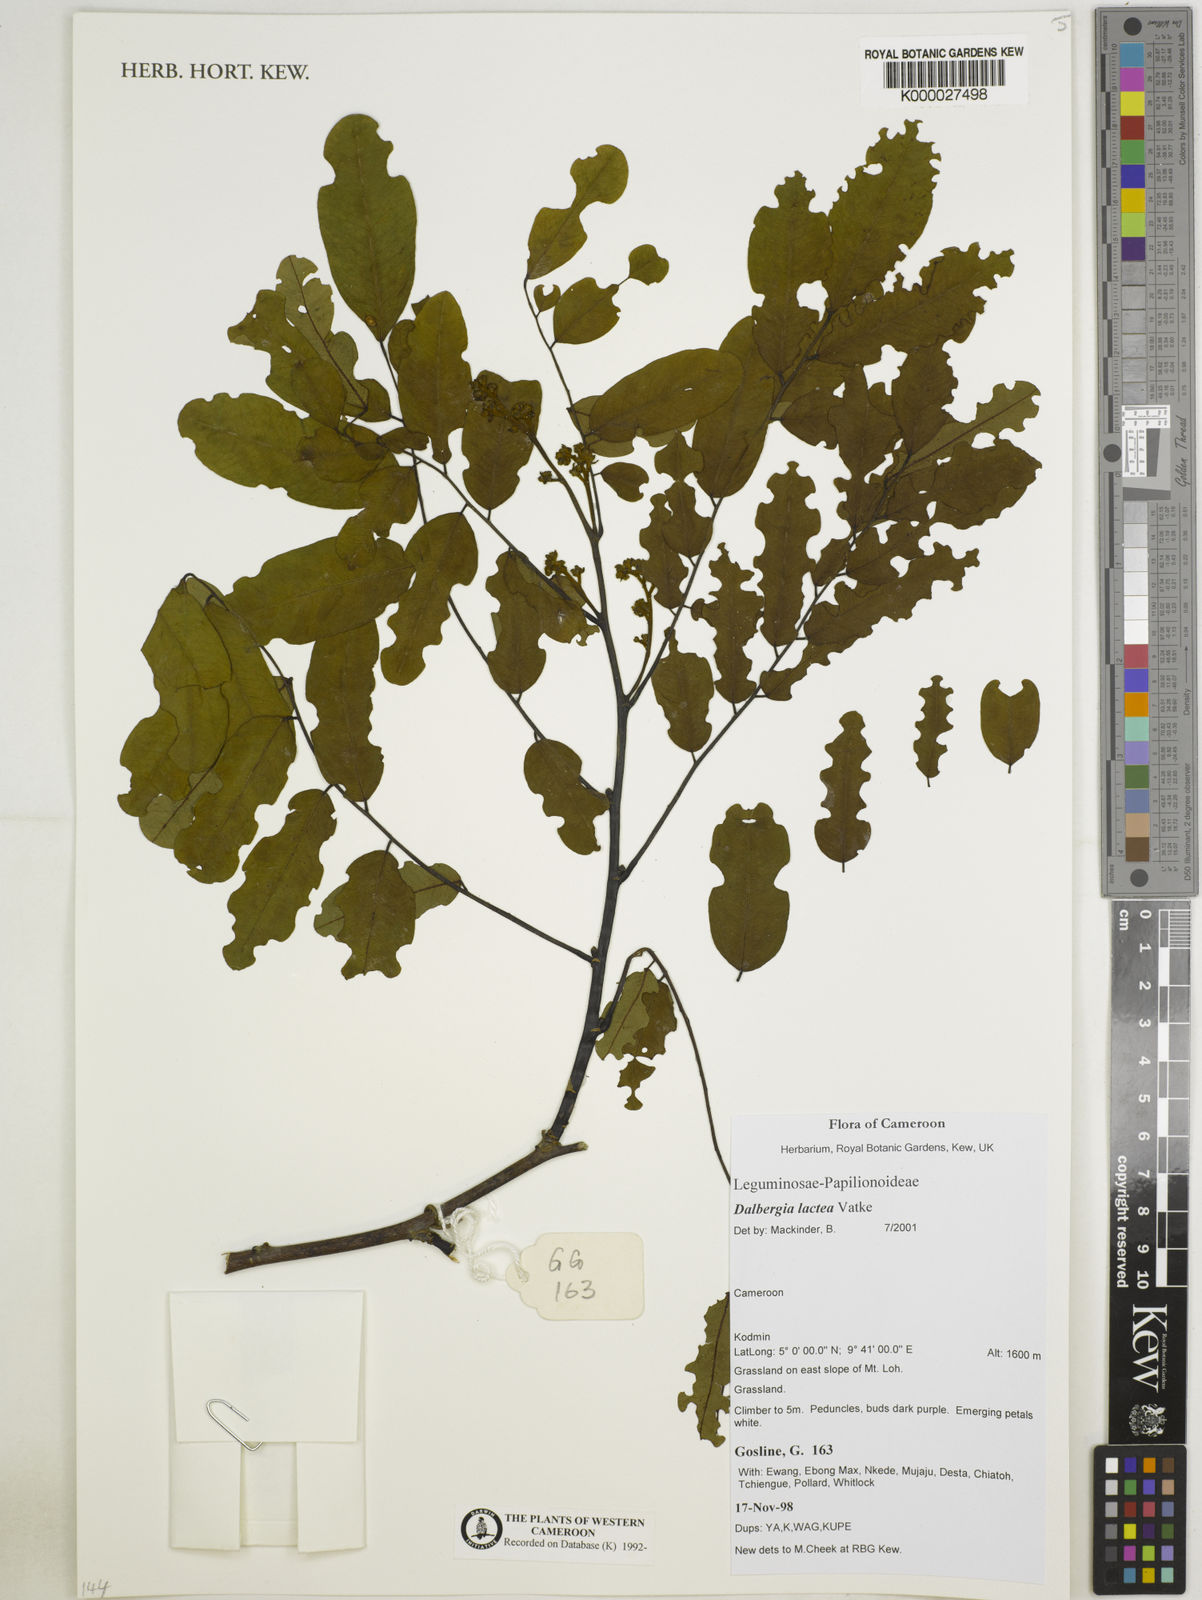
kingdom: Plantae
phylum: Tracheophyta
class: Magnoliopsida
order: Fabales
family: Fabaceae
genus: Dalbergia
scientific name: Dalbergia lactea
